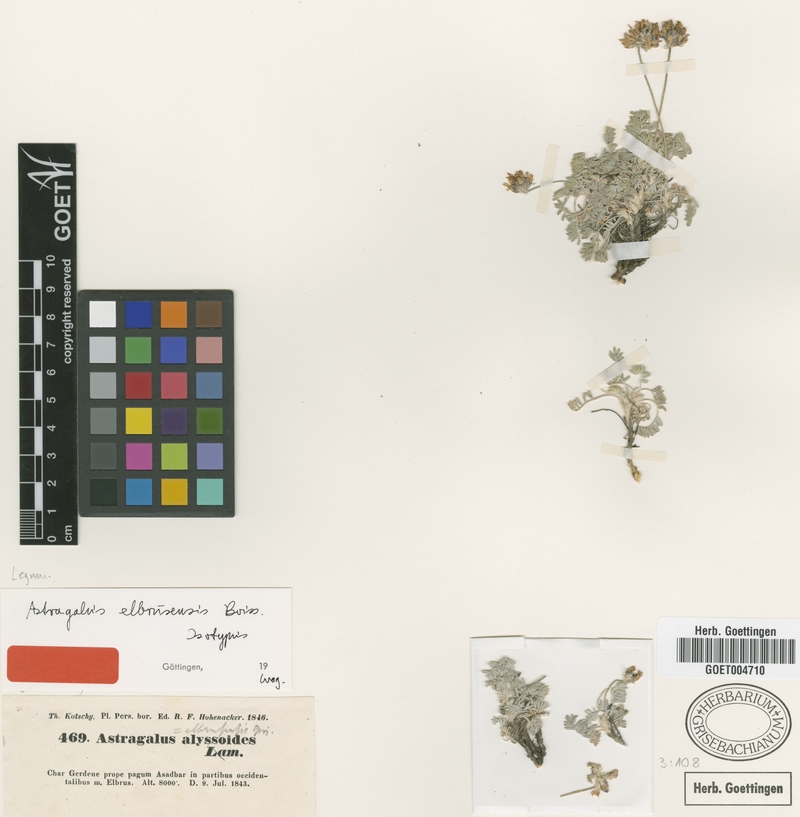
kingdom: Plantae
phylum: Tracheophyta
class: Magnoliopsida
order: Fabales
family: Fabaceae
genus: Astragalus
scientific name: Astragalus alyssoides
